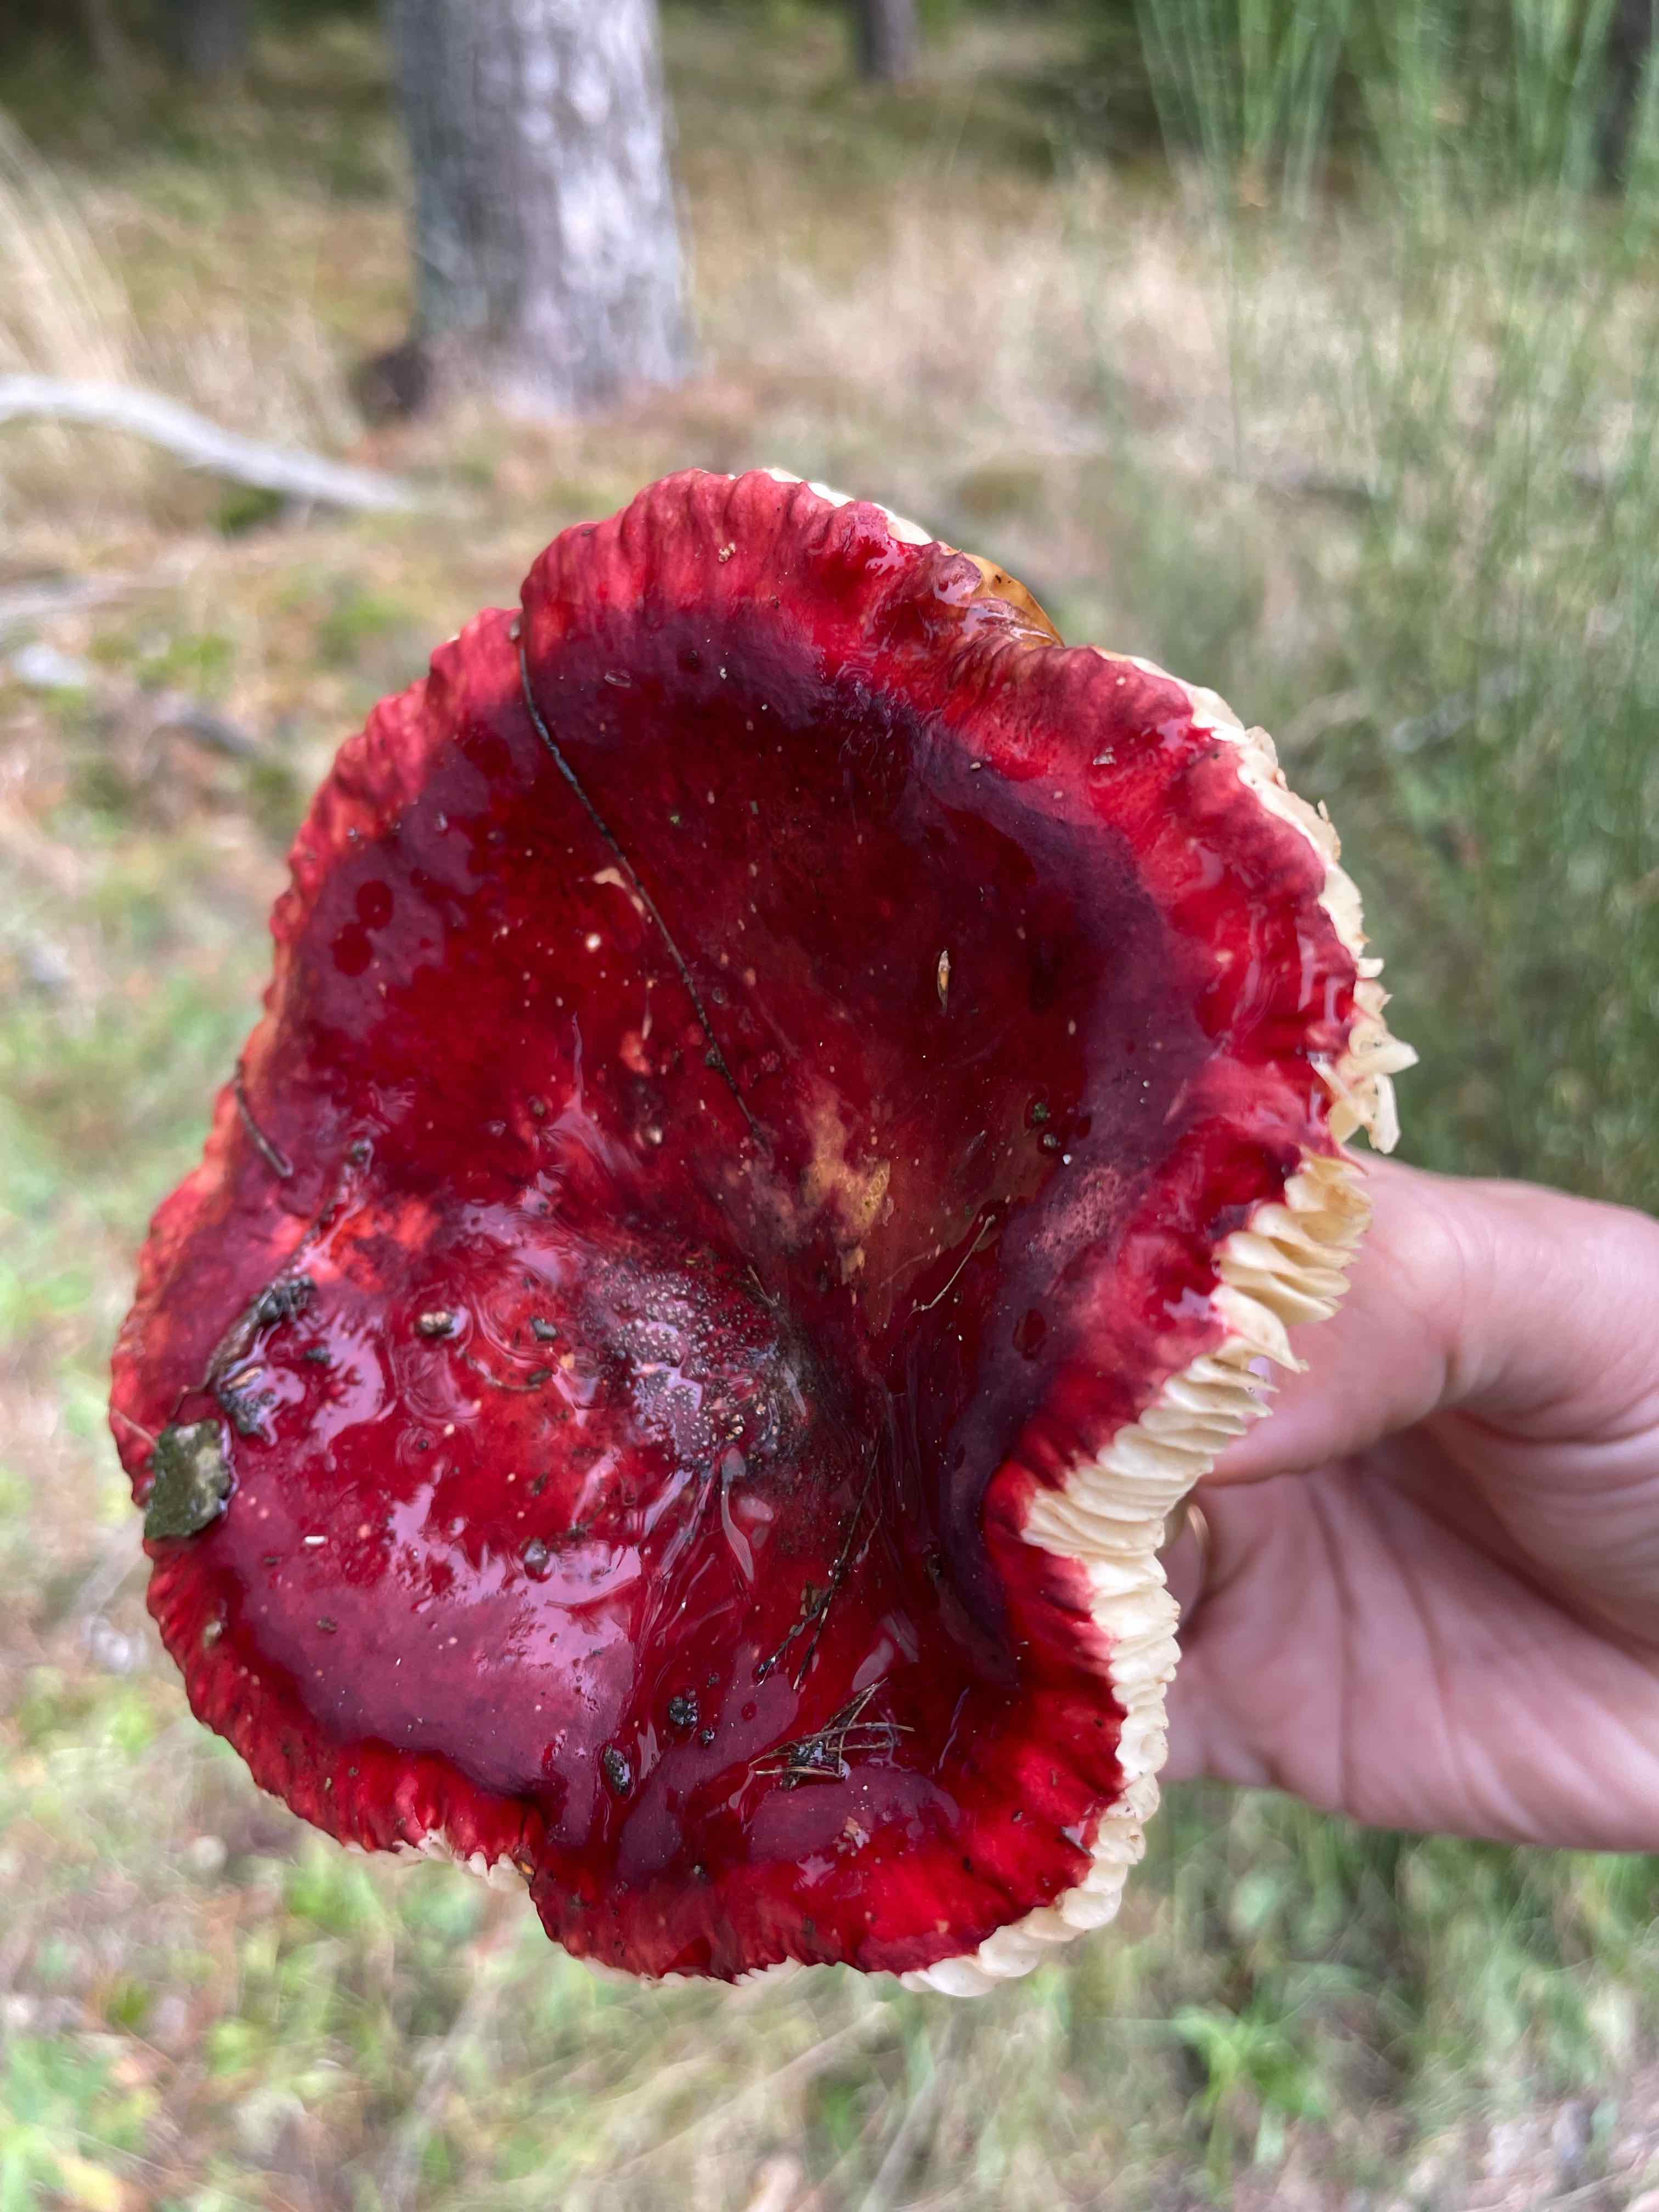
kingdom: Fungi
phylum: Basidiomycota
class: Agaricomycetes
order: Russulales
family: Russulaceae
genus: Russula
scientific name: Russula xerampelina
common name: hummer-skørhat
